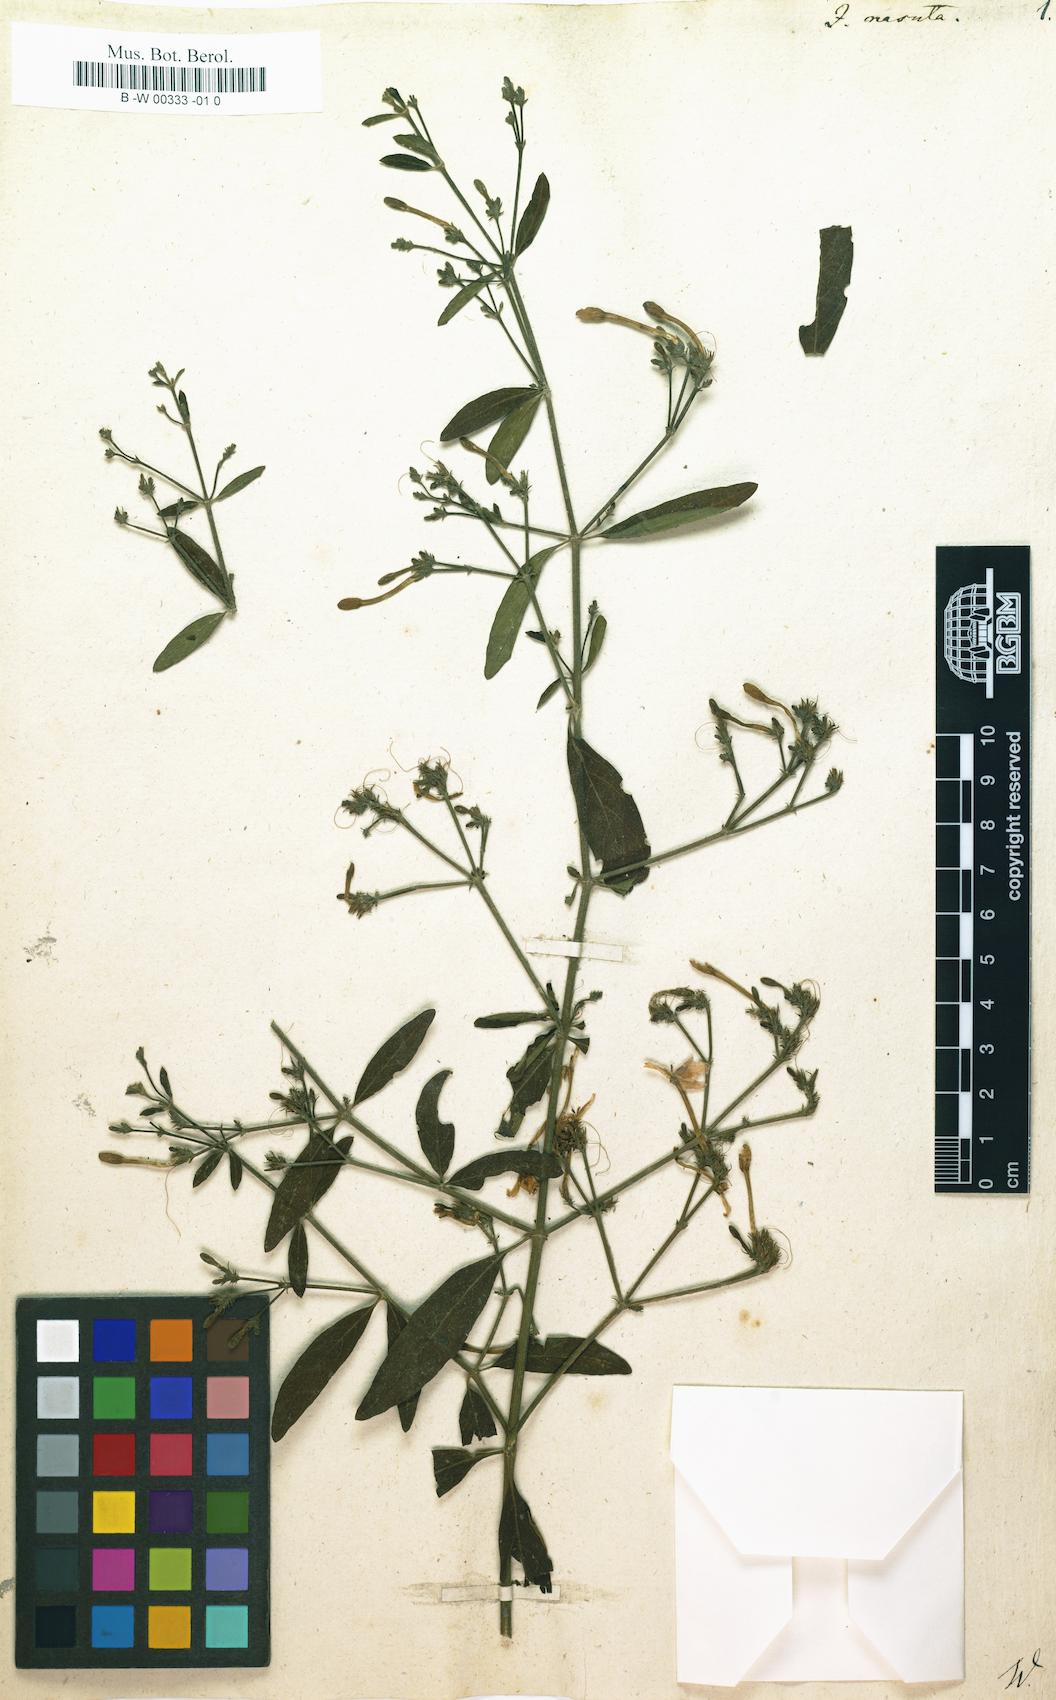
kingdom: Plantae
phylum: Tracheophyta
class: Magnoliopsida
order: Lamiales
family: Acanthaceae
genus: Rhinacanthus
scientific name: Rhinacanthus nasutus
